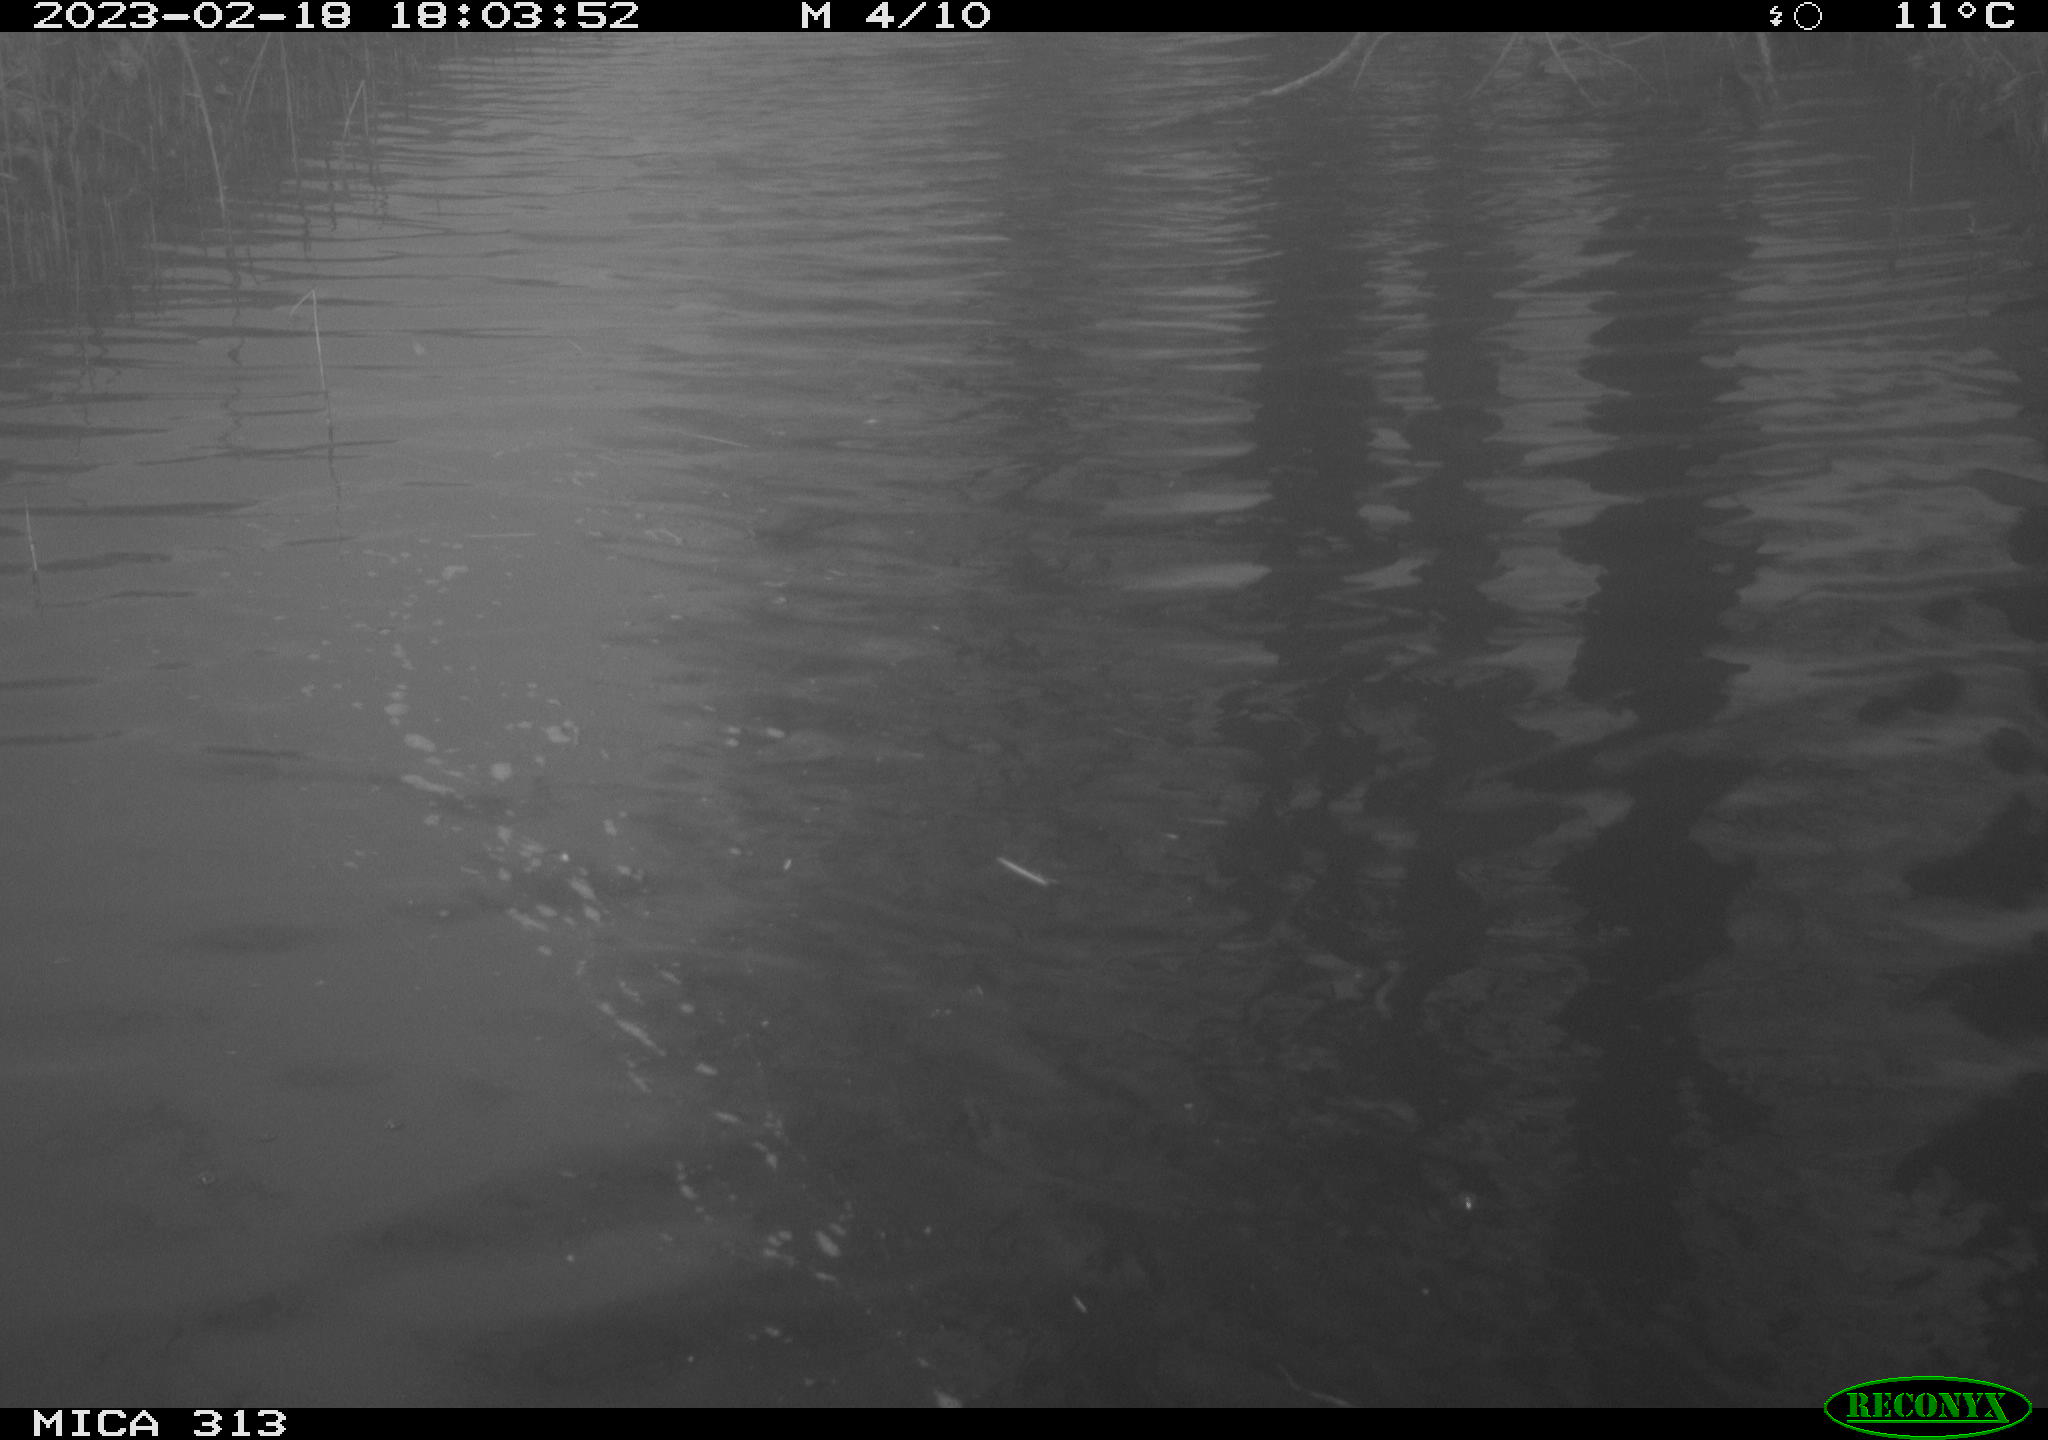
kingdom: Animalia
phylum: Chordata
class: Aves
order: Gruiformes
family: Rallidae
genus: Gallinula
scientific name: Gallinula chloropus
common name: Common moorhen
